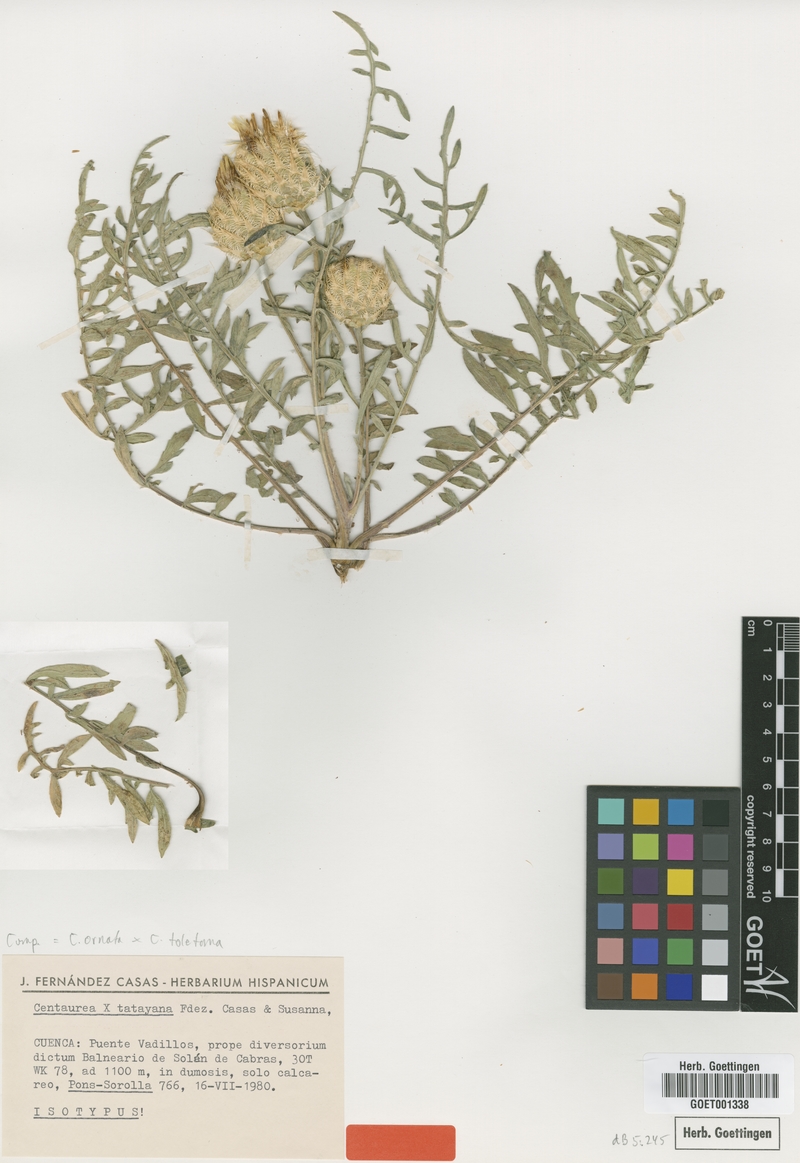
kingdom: Plantae
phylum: Tracheophyta
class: Magnoliopsida
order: Asterales
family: Asteraceae
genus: Centaurea
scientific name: Centaurea tatayana
